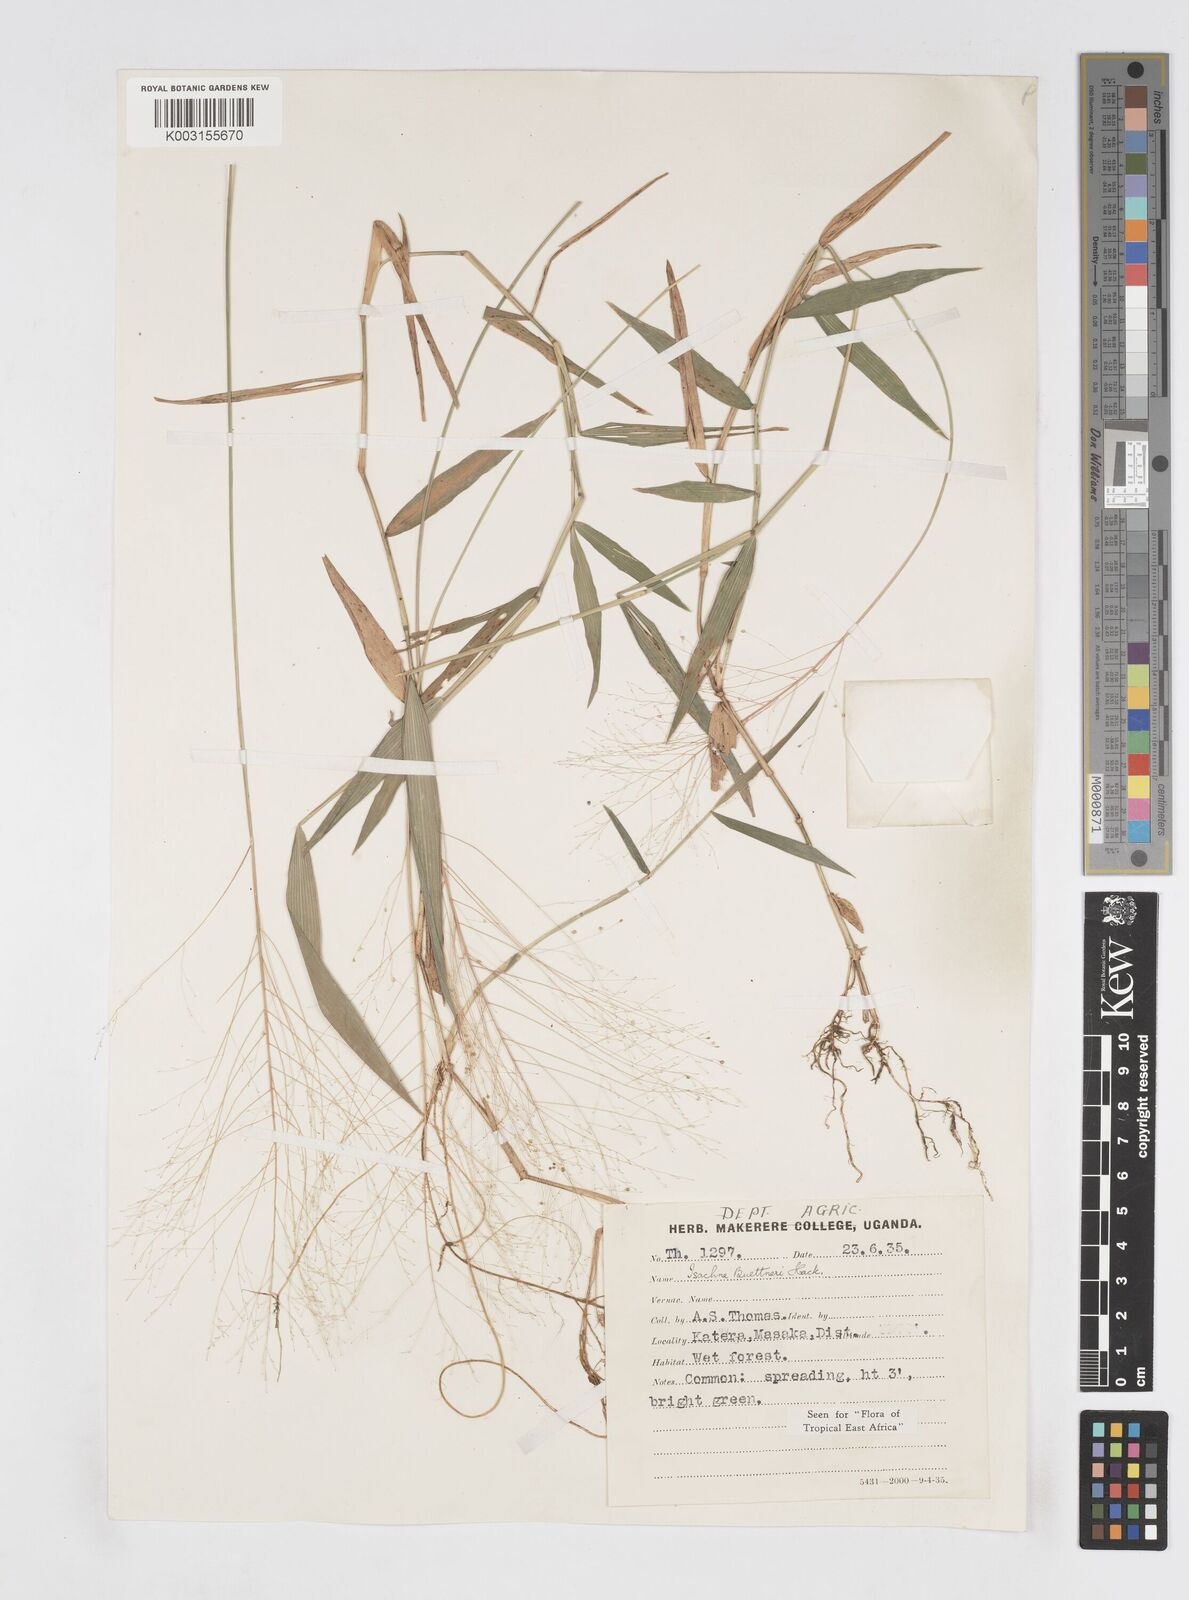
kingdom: Plantae
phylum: Tracheophyta
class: Liliopsida
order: Poales
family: Poaceae
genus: Isachne
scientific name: Isachne albens
